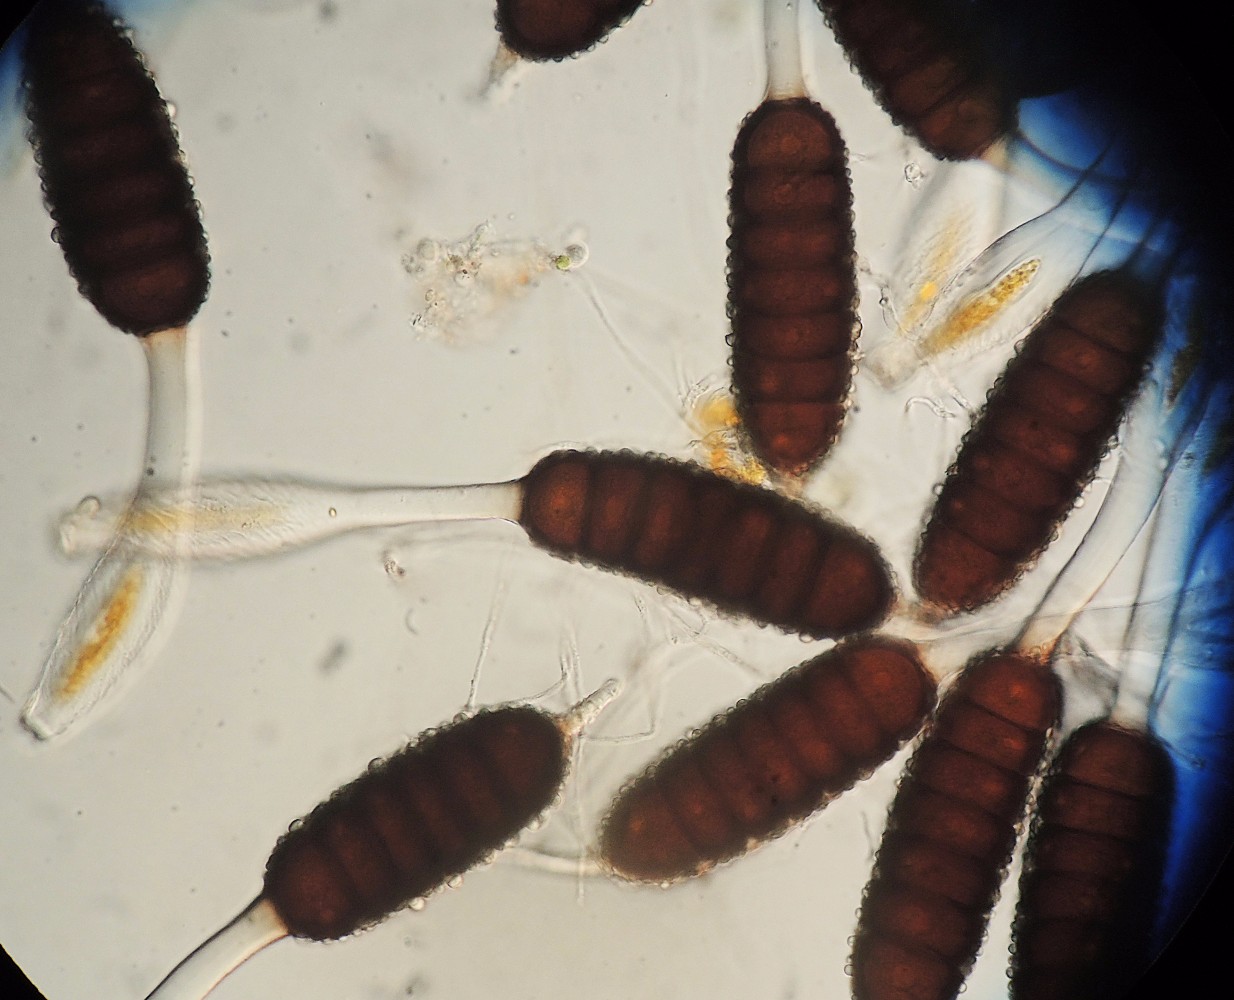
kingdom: Fungi
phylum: Basidiomycota
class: Pucciniomycetes
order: Pucciniales
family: Phragmidiaceae
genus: Phragmidium
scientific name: Phragmidium tuberculatum
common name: Rose rust
